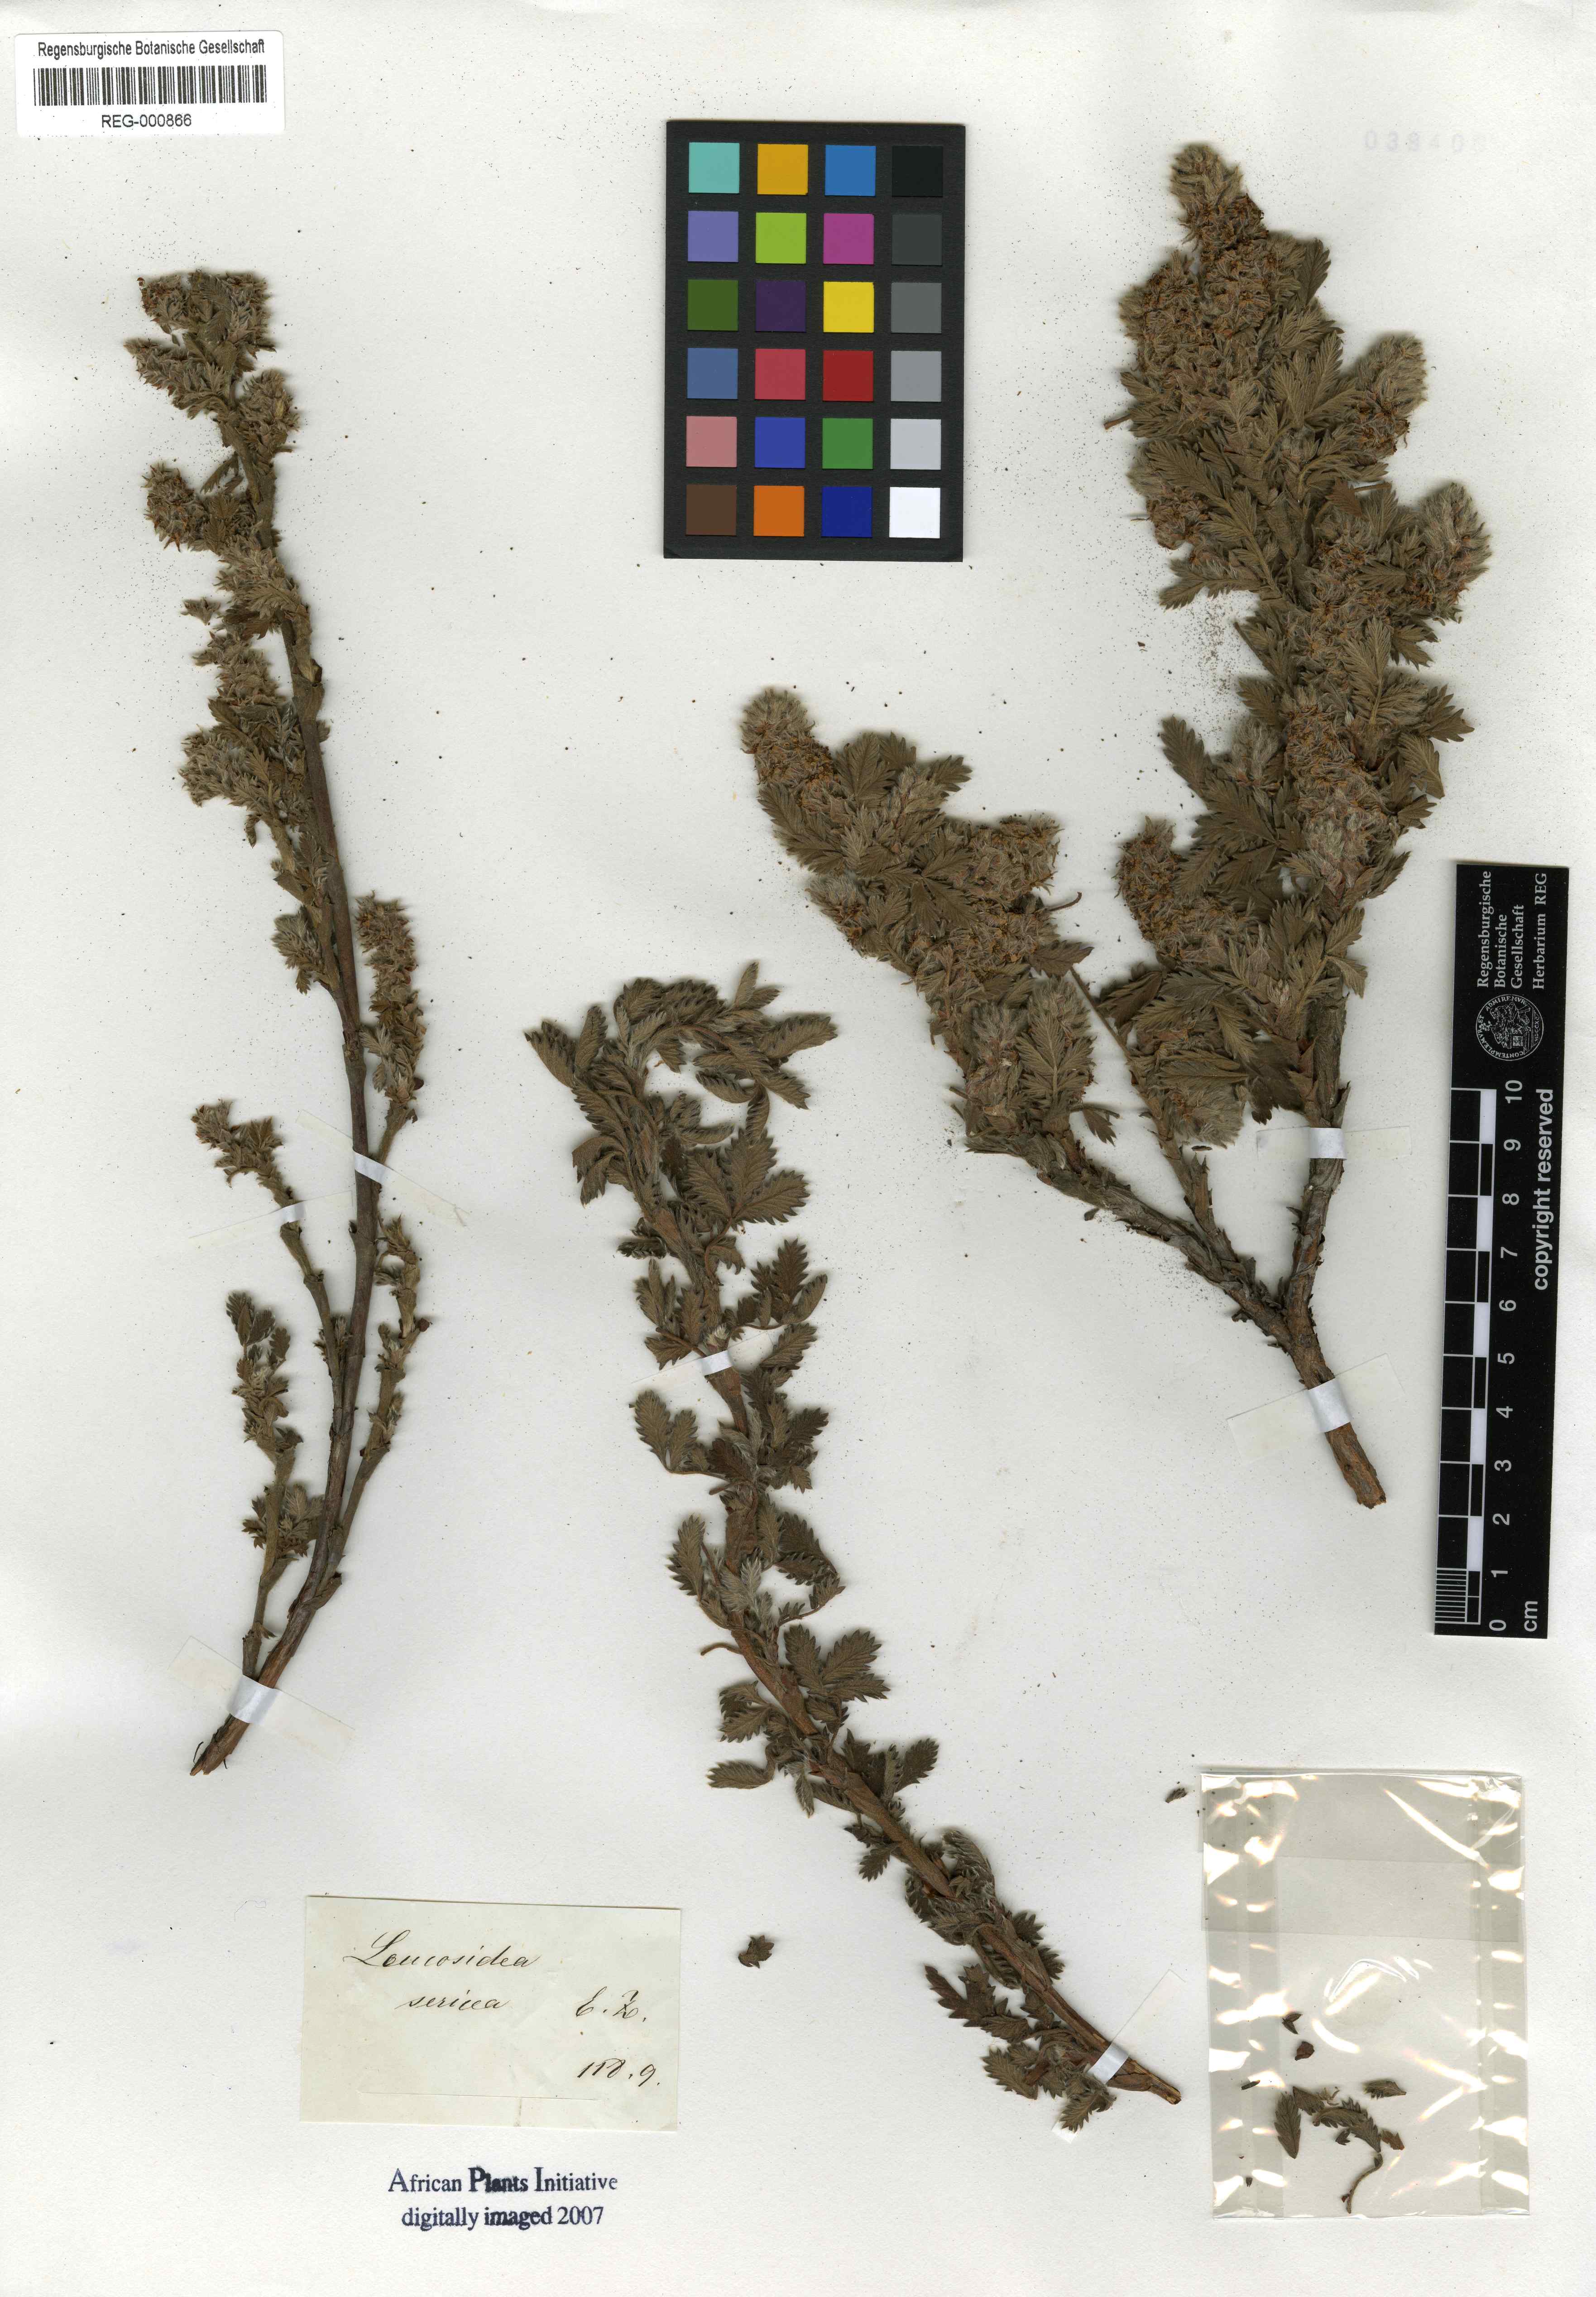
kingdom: Plantae
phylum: Tracheophyta
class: Magnoliopsida
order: Rosales
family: Rosaceae
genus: Leucosidea
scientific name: Leucosidea sericea
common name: Oldwood
